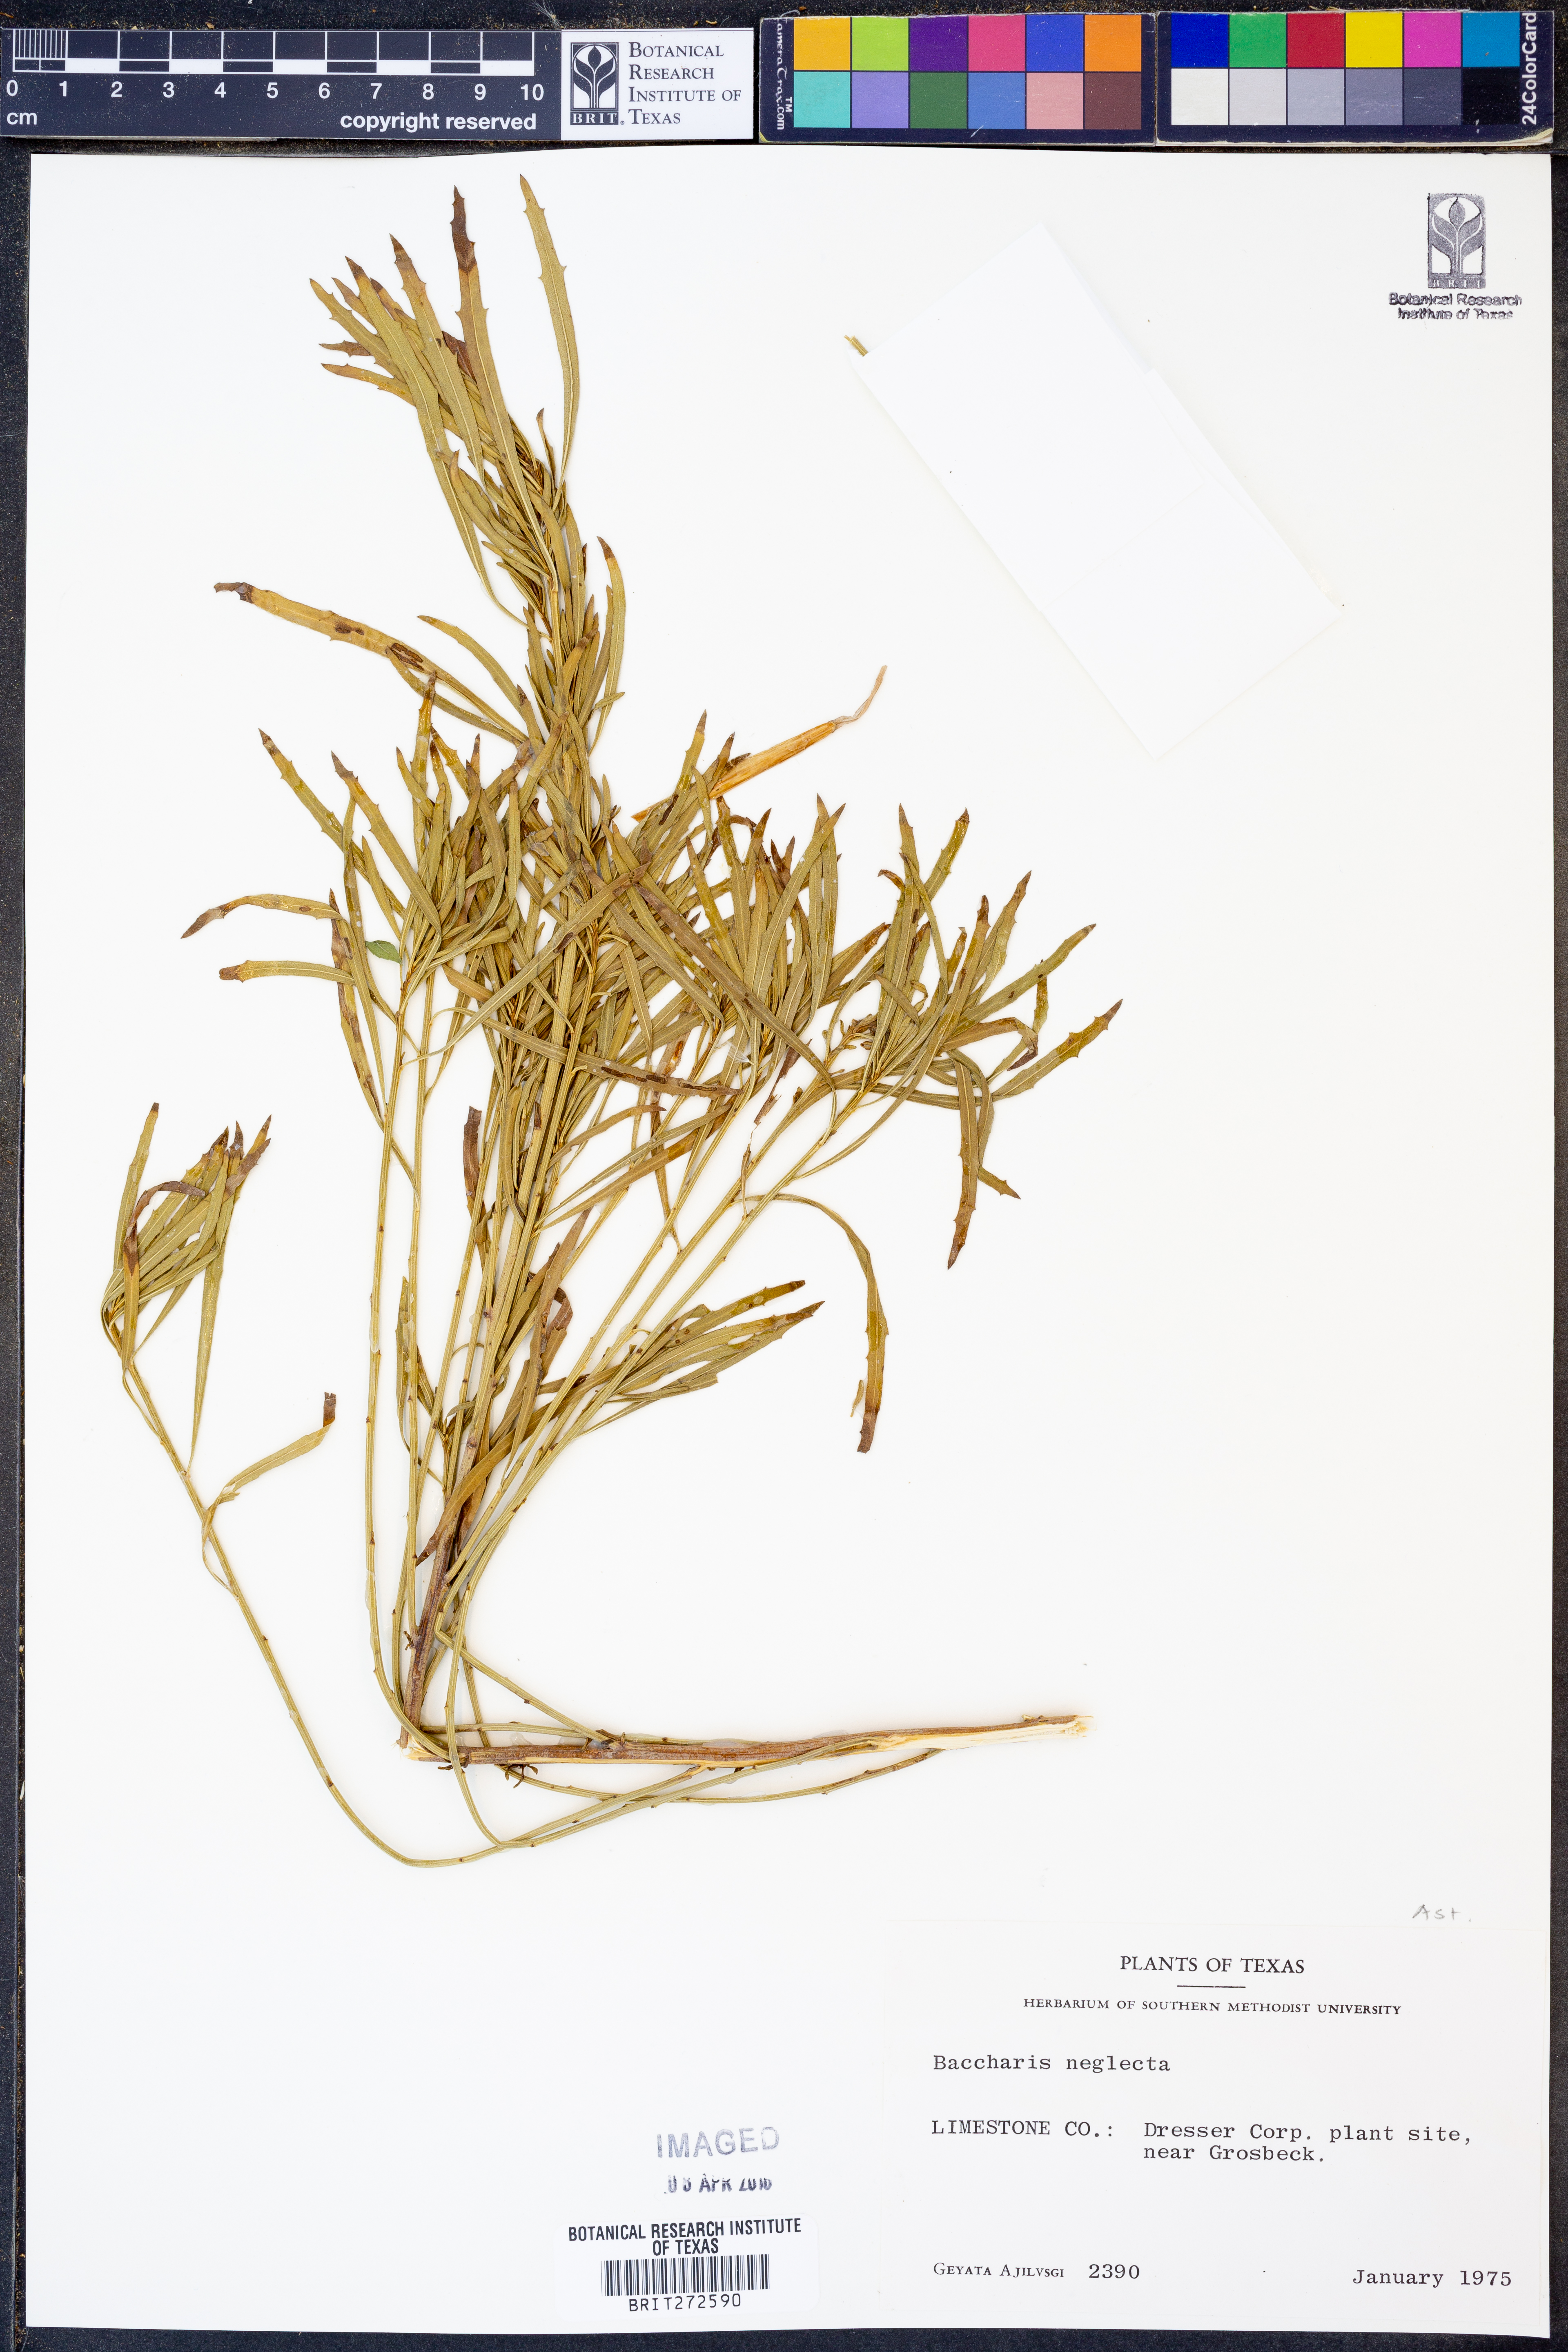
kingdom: Plantae
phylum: Tracheophyta
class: Magnoliopsida
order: Asterales
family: Asteraceae
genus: Baccharis
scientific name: Baccharis neglecta
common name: Roosevelt-weed
